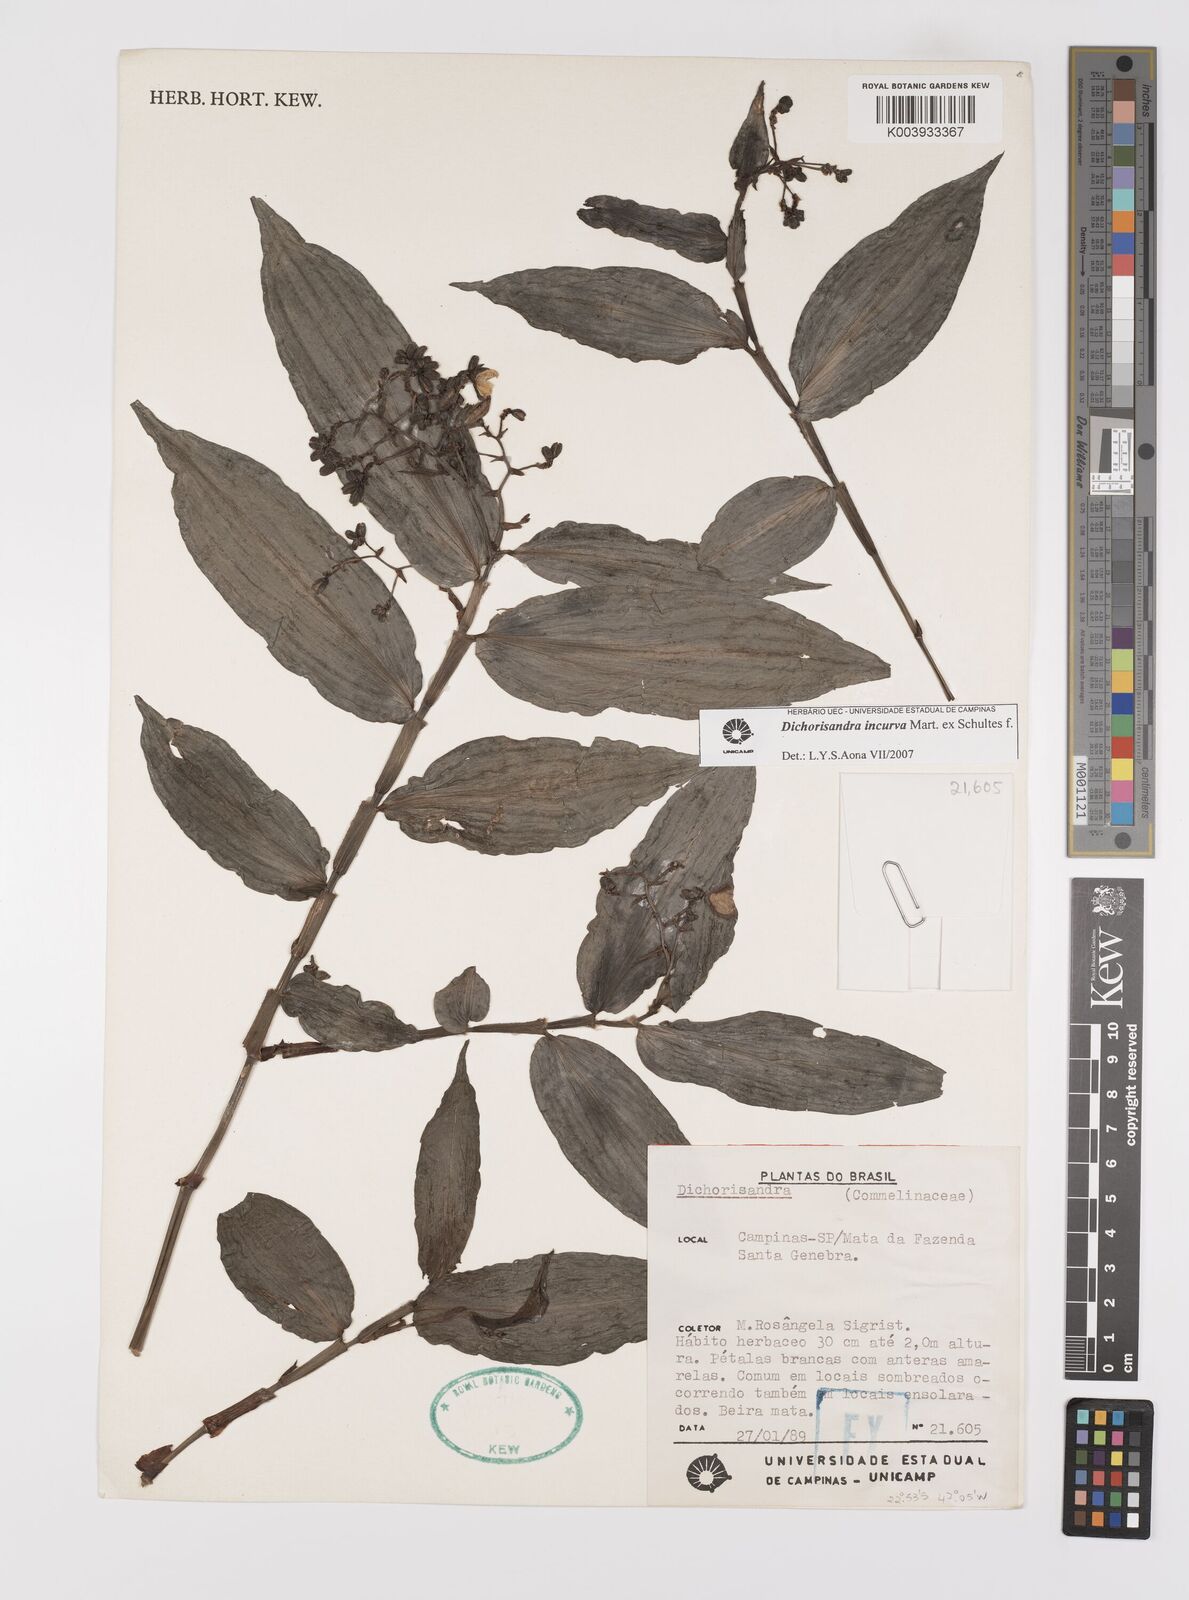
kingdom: Plantae
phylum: Tracheophyta
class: Liliopsida
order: Commelinales
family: Commelinaceae
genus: Dichorisandra
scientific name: Dichorisandra incurva
